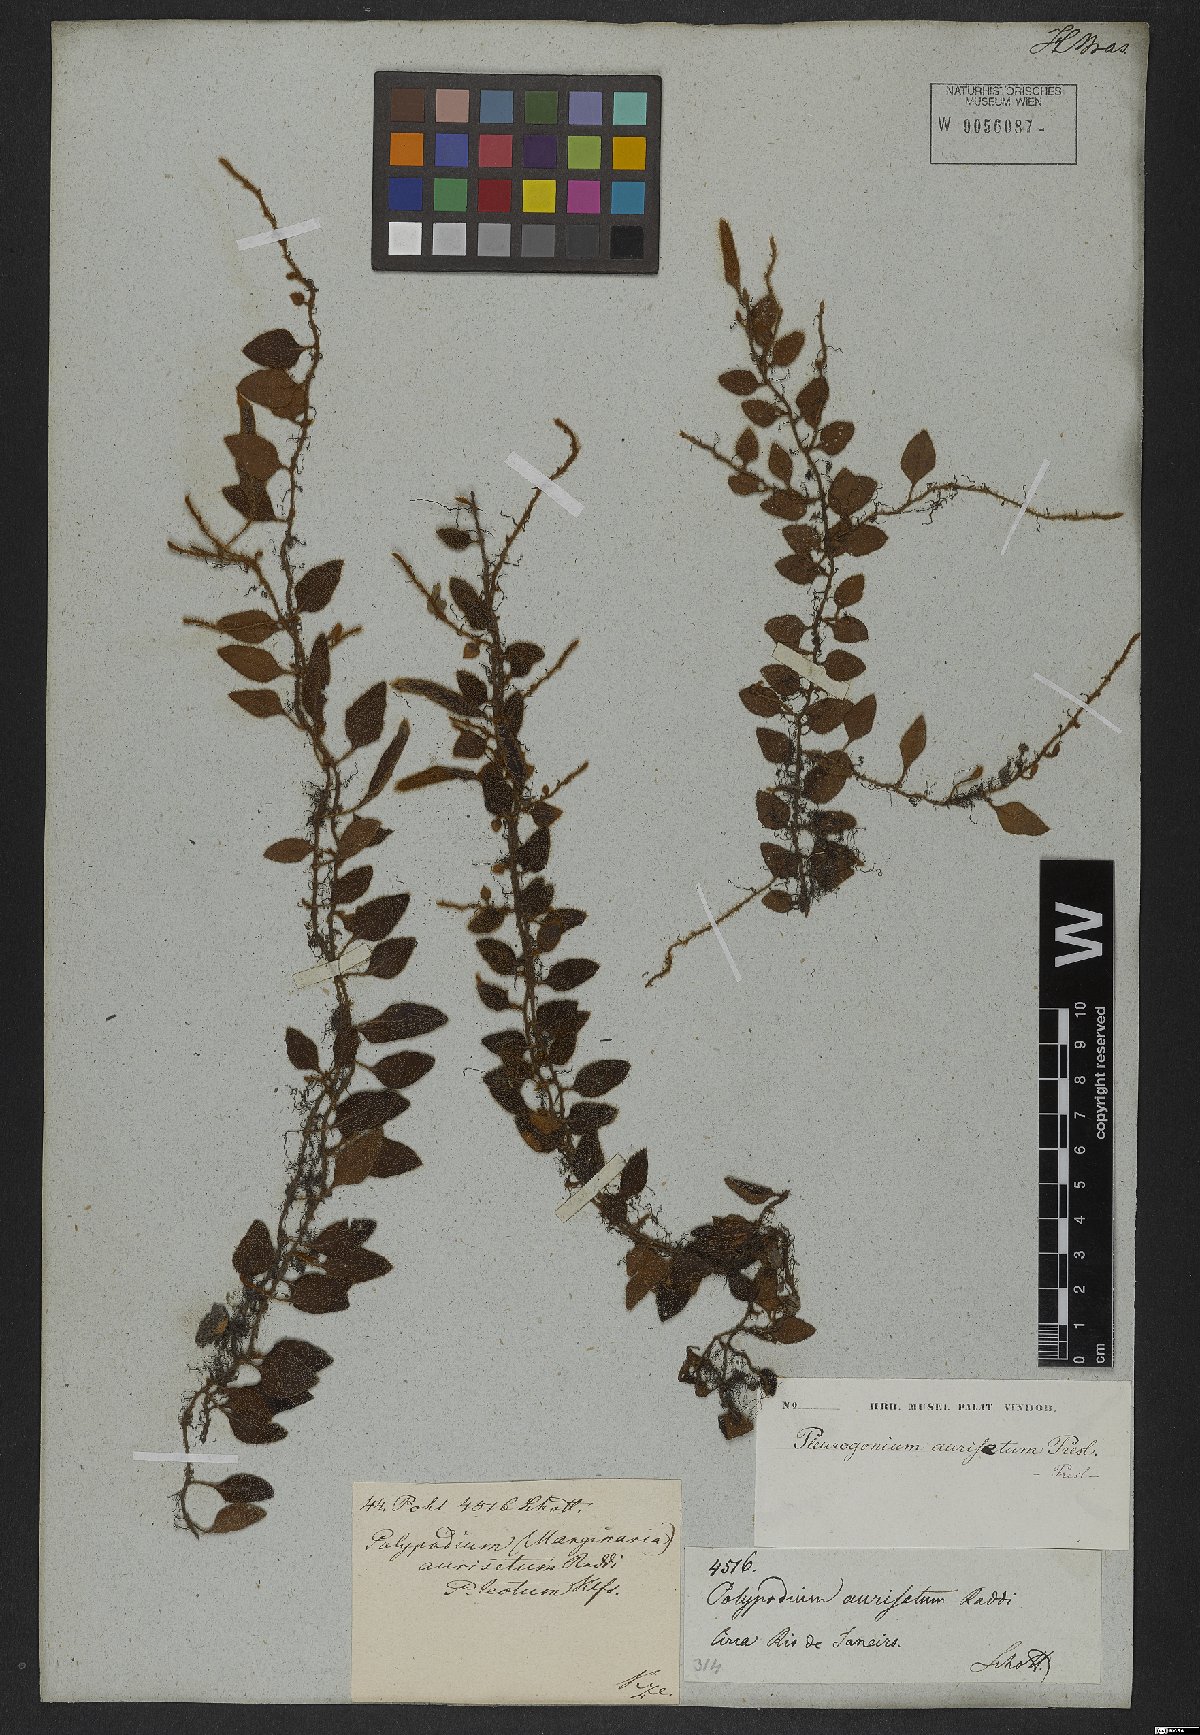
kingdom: Plantae
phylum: Tracheophyta
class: Polypodiopsida
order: Polypodiales
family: Polypodiaceae
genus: Serpocaulon
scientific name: Serpocaulon triseriale
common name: Angle-vein fern
